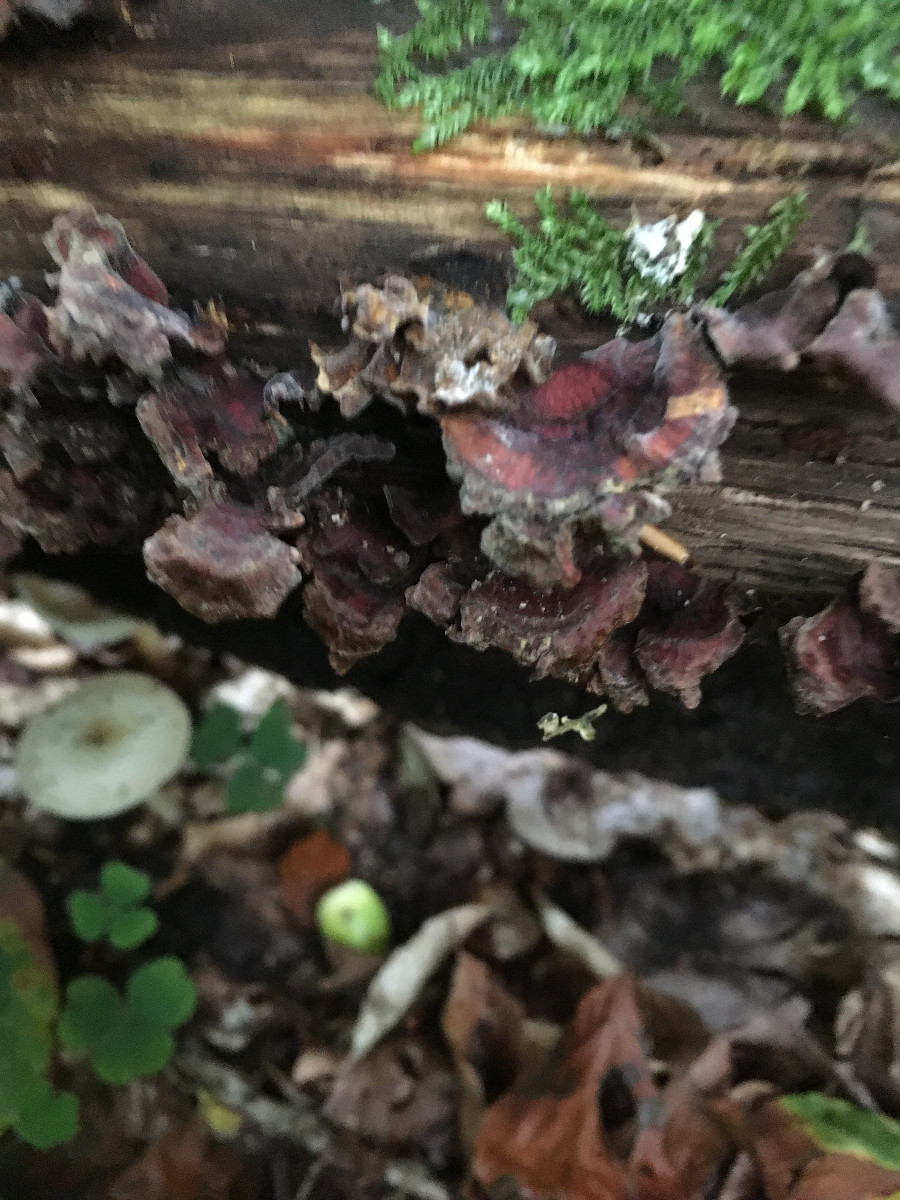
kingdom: Fungi
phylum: Basidiomycota
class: Agaricomycetes
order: Russulales
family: Stereaceae
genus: Stereum
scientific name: Stereum
